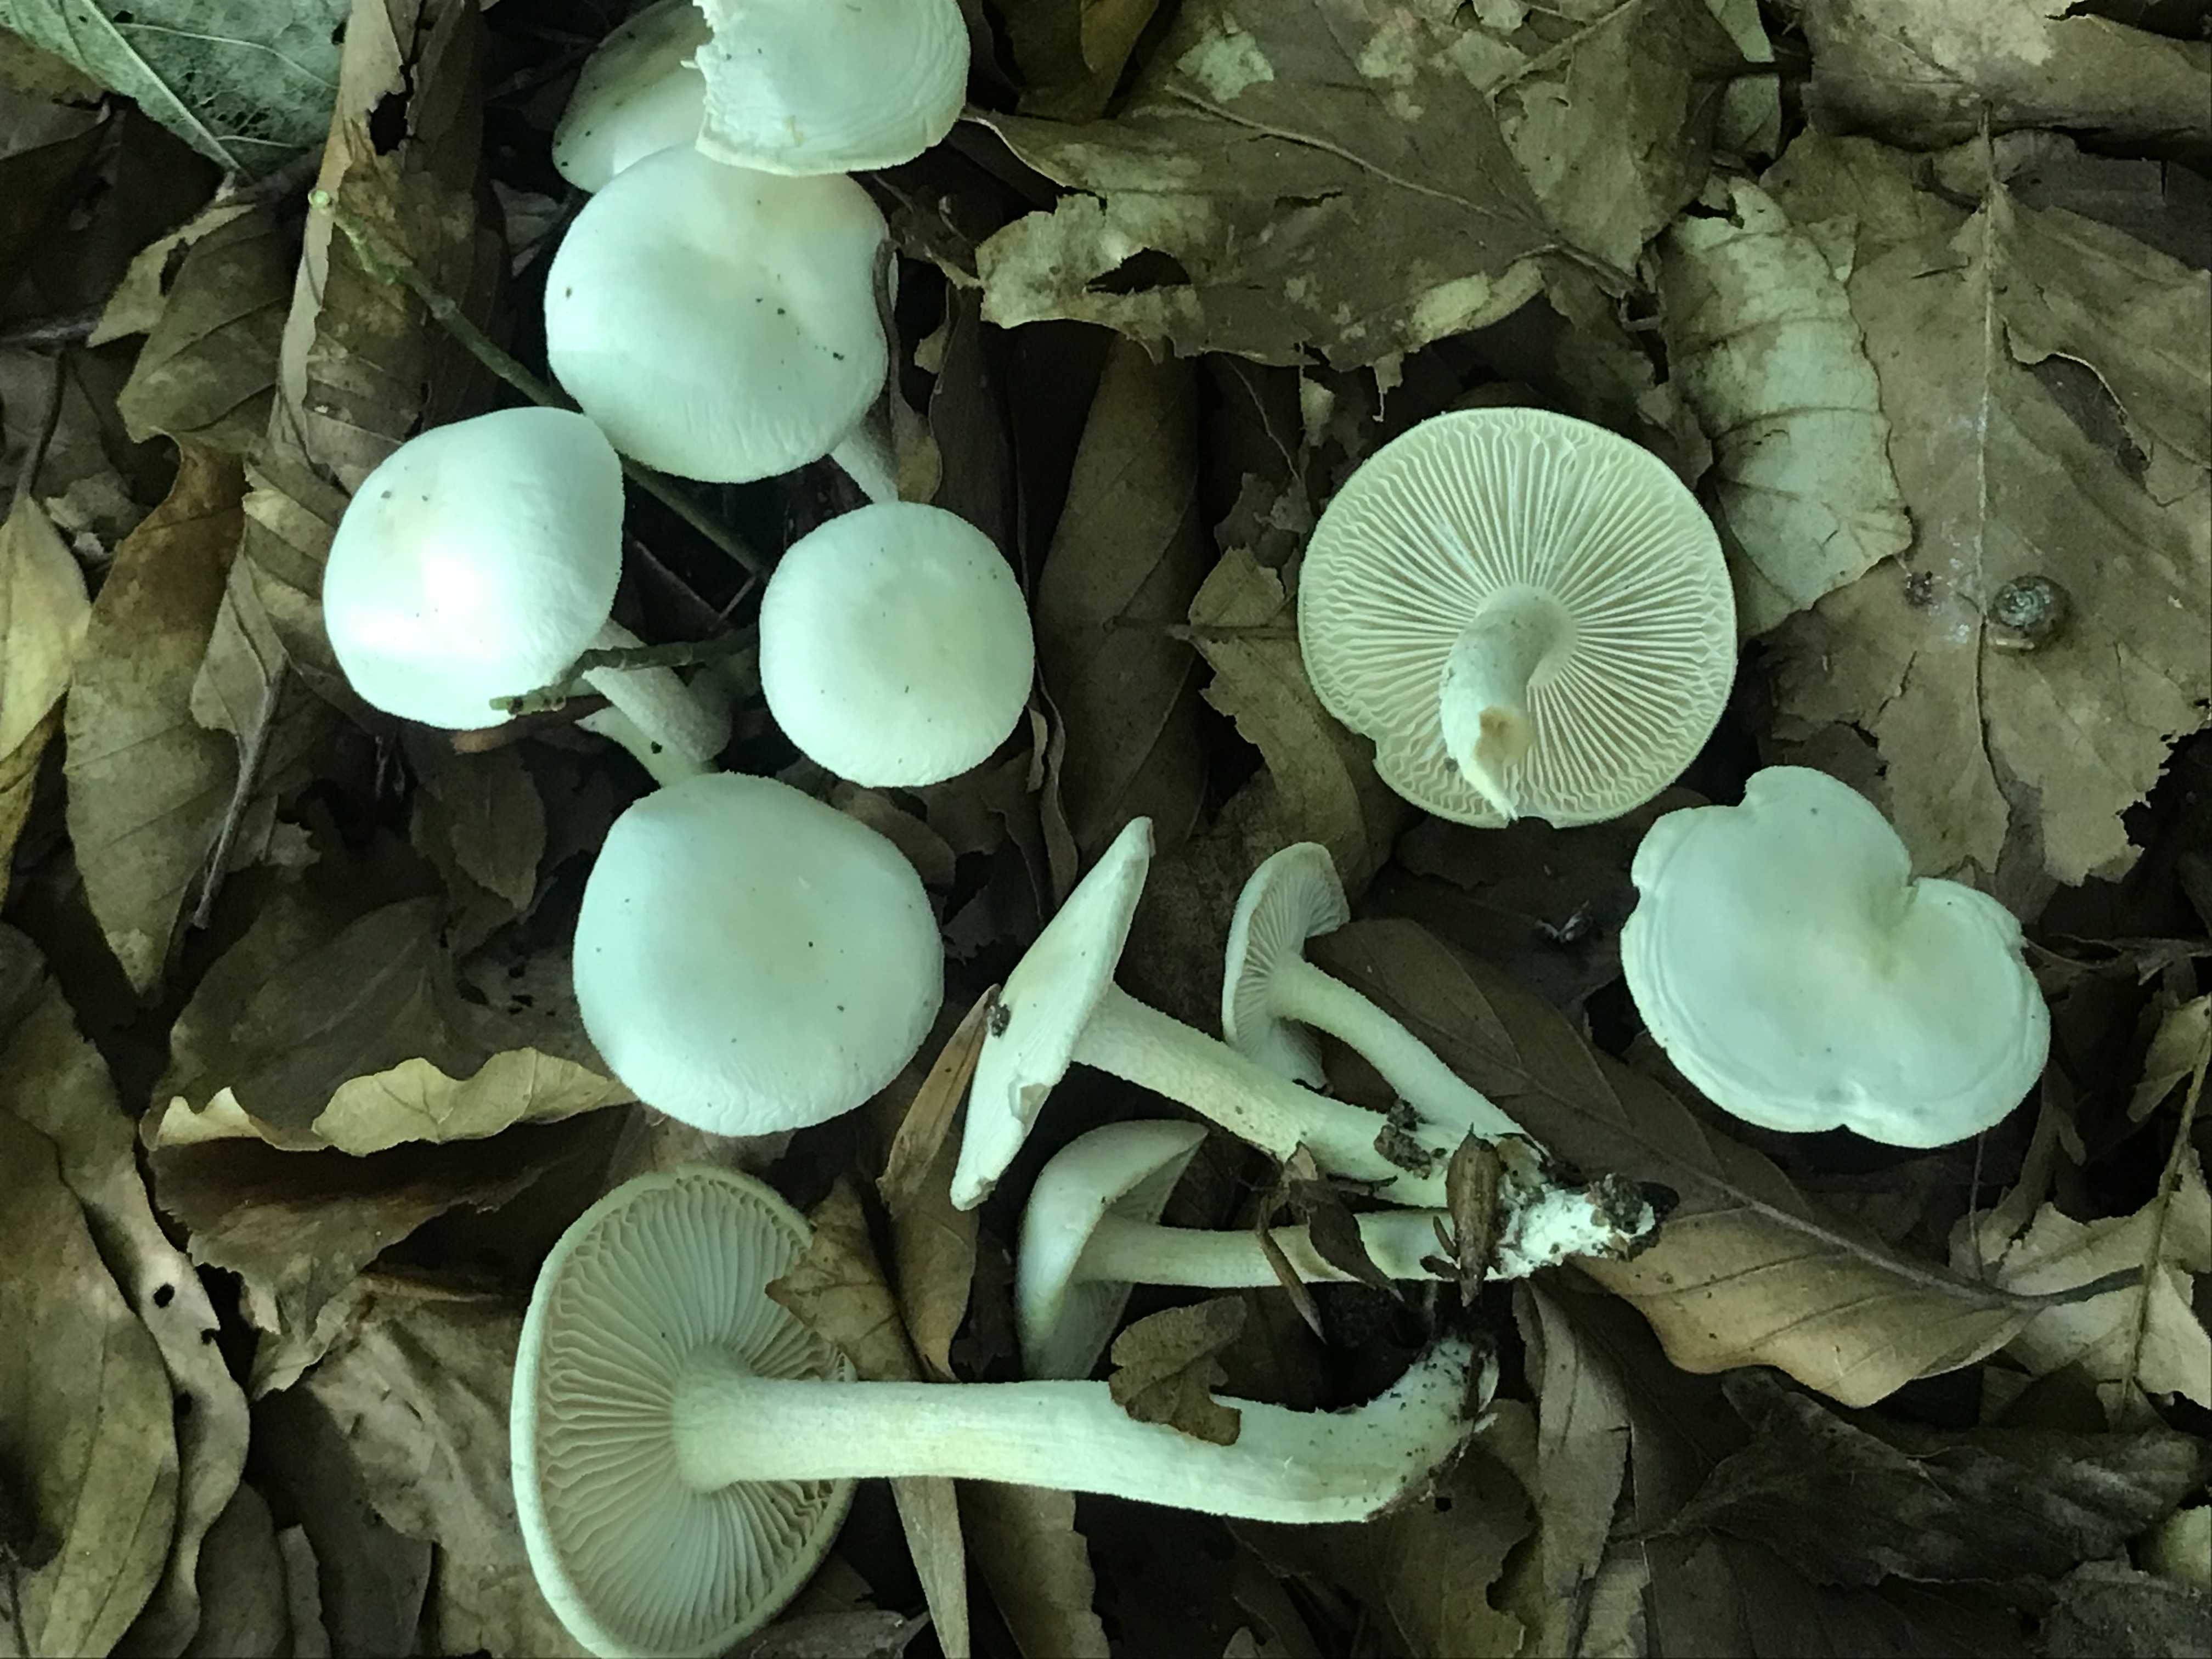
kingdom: Fungi
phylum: Basidiomycota
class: Agaricomycetes
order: Agaricales
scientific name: Agaricales
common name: champignonordenen
